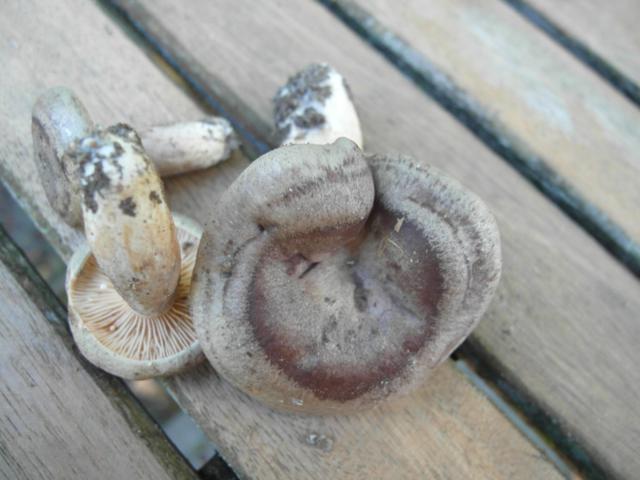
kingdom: Fungi
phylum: Basidiomycota
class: Agaricomycetes
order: Russulales
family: Russulaceae
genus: Lactarius
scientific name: Lactarius circellatus
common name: avnbøg-mælkehat
